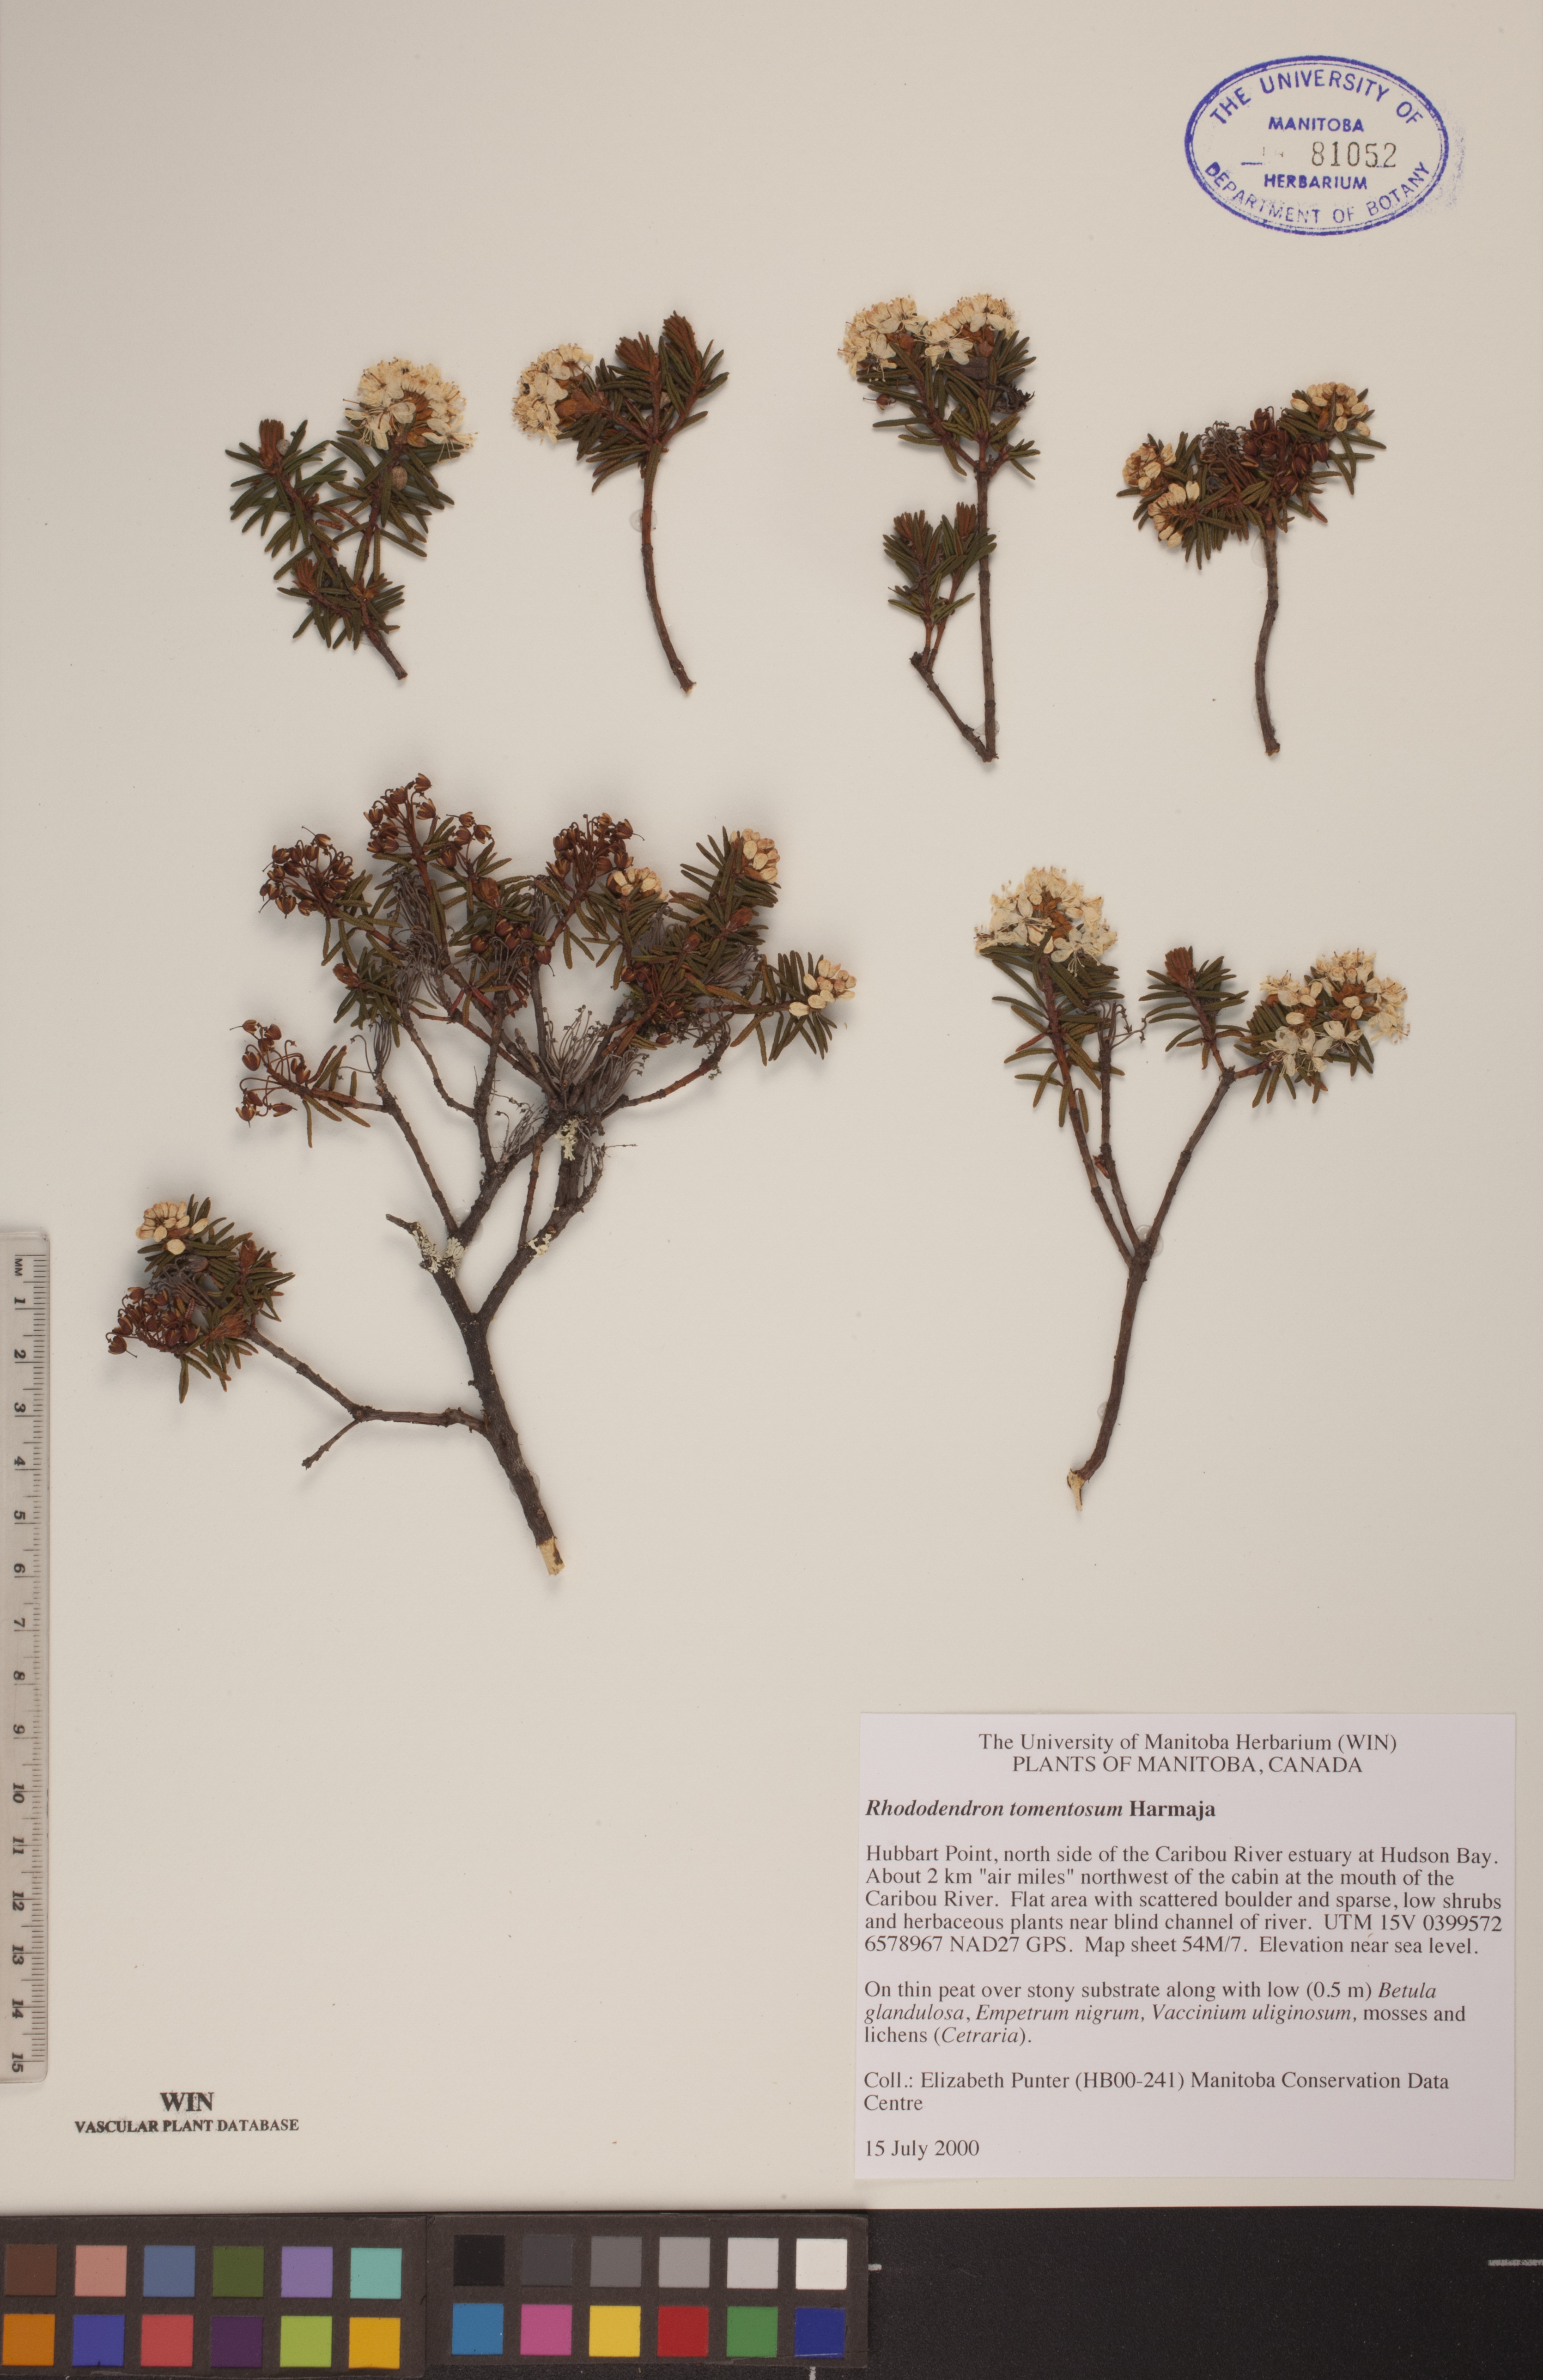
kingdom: Plantae
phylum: Tracheophyta
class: Magnoliopsida
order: Ericales
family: Ericaceae
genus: Rhododendron
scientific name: Rhododendron tomentosum
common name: Marsh labrador tea
